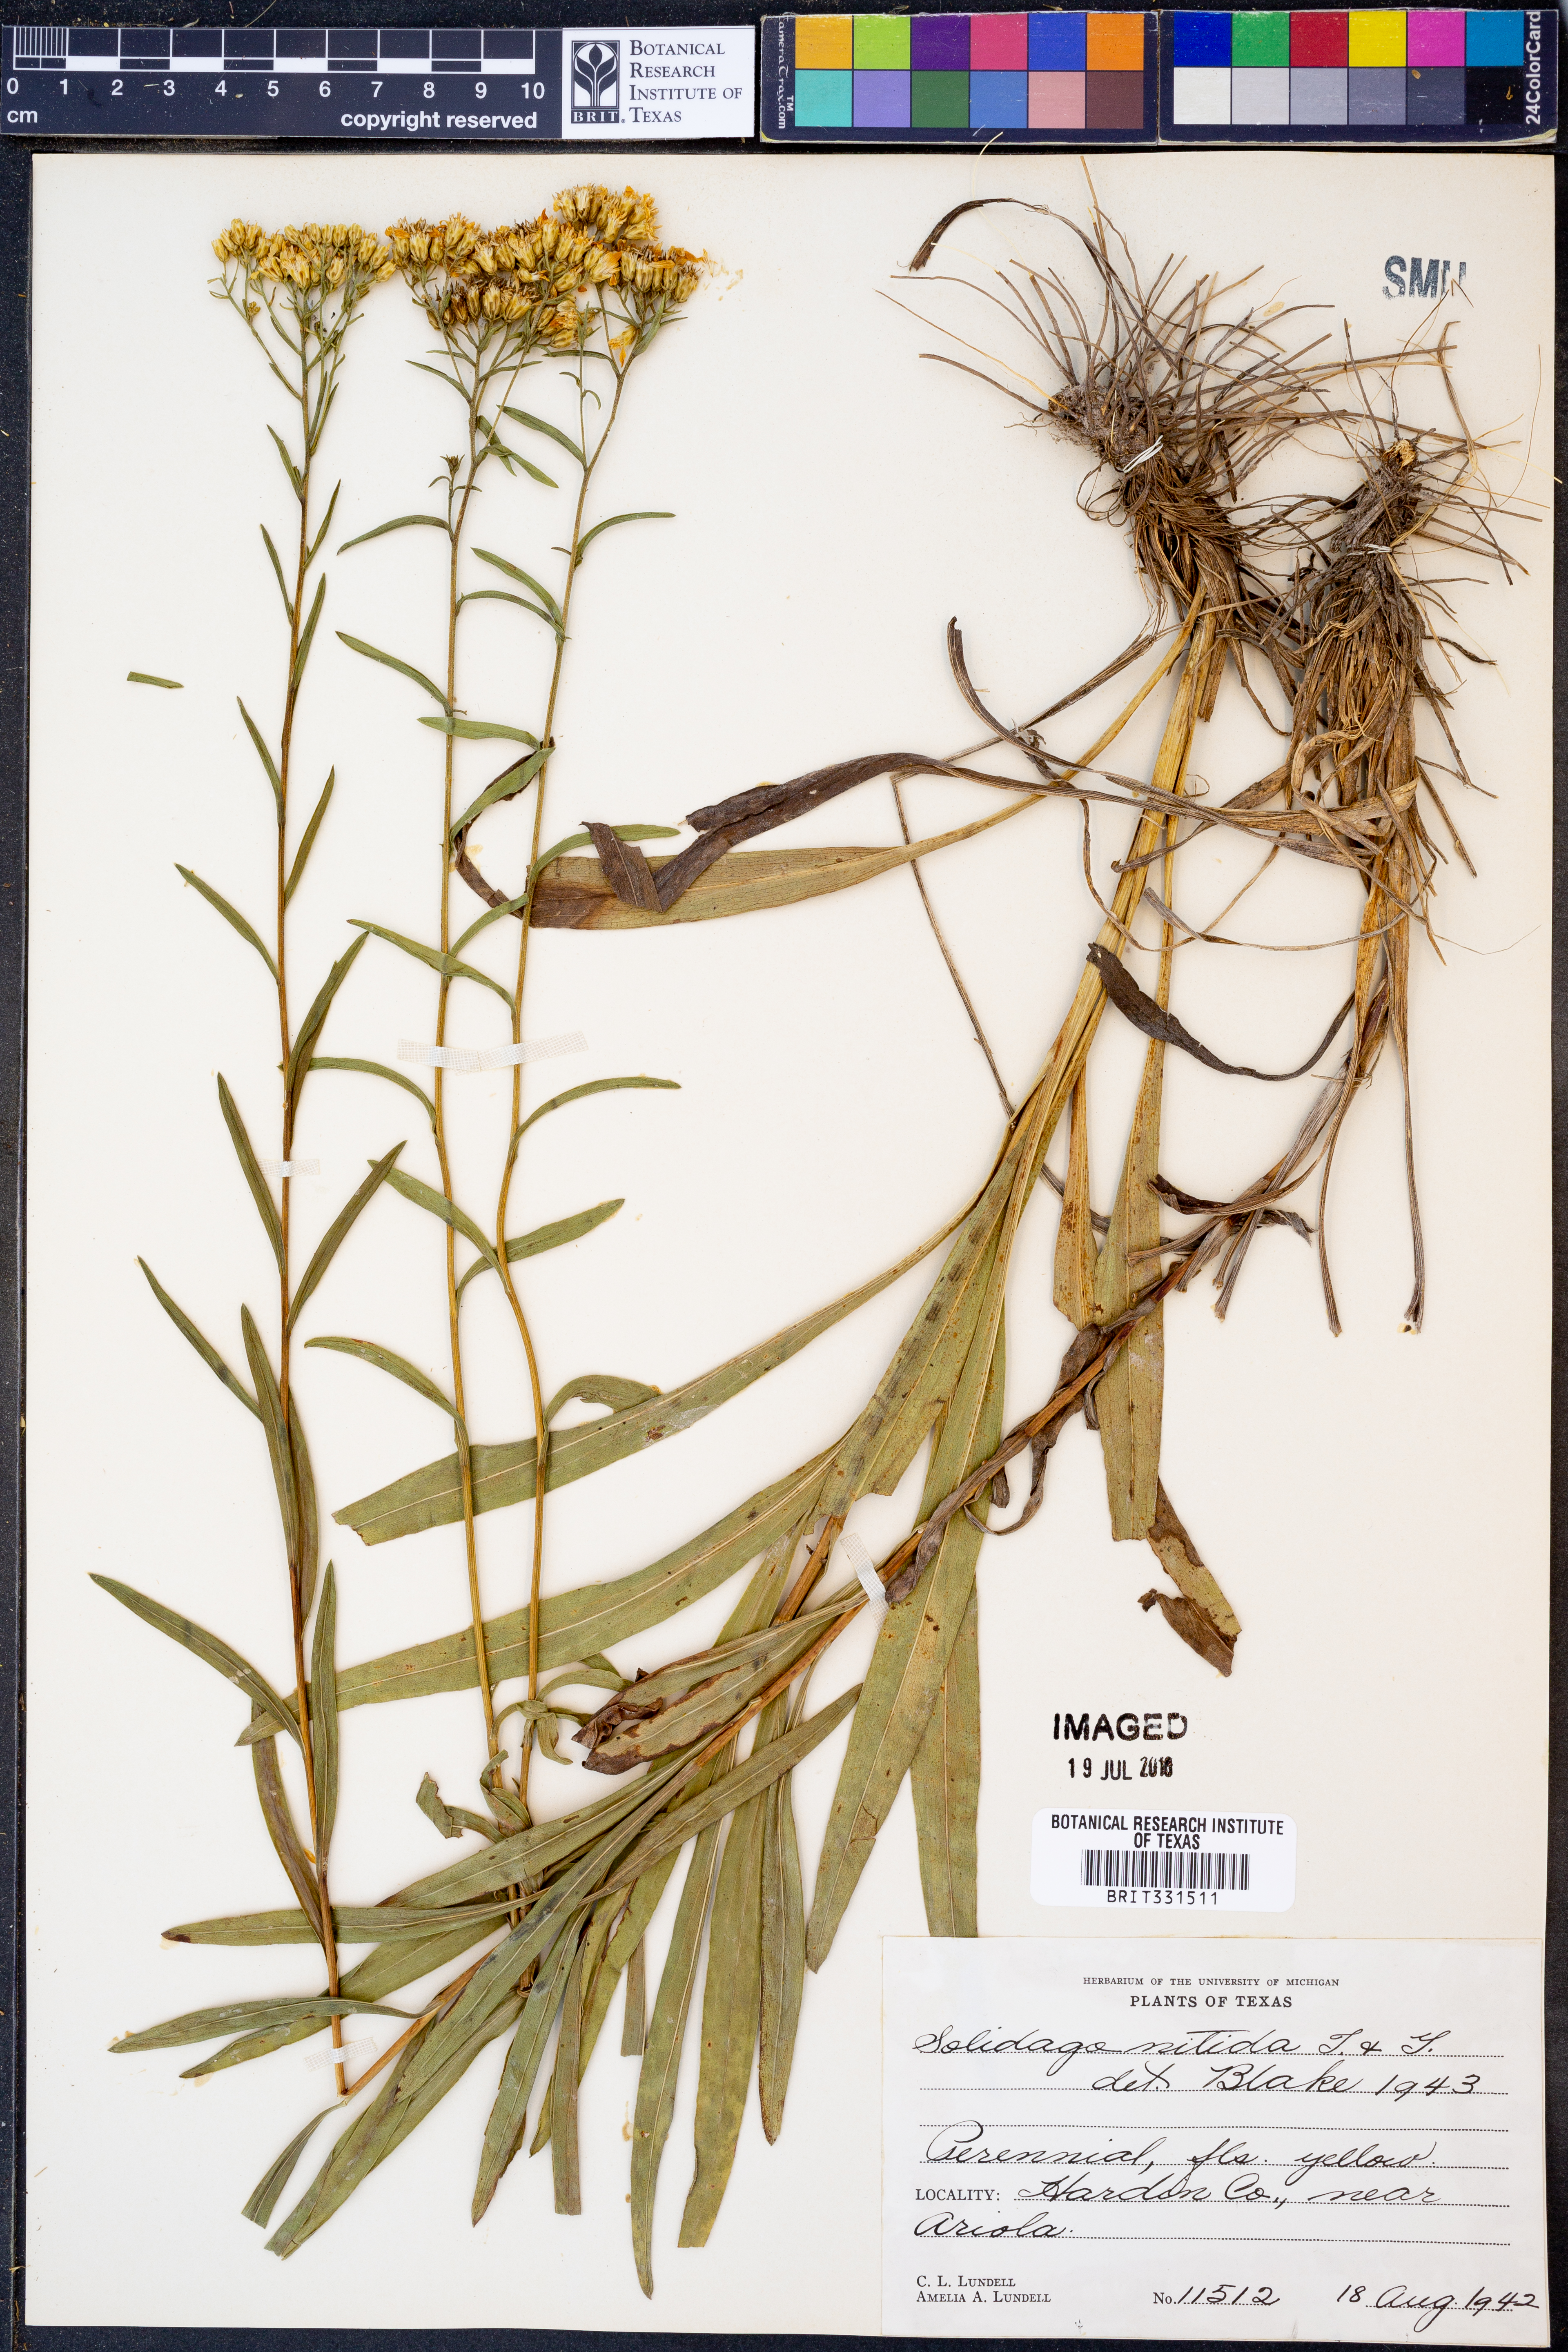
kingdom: Plantae
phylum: Tracheophyta
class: Magnoliopsida
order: Asterales
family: Asteraceae
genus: Solidago
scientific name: Solidago nitida
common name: Shiny goldenrod
